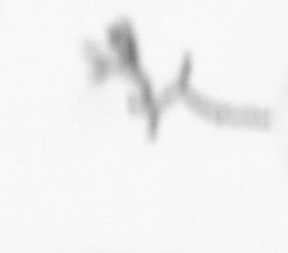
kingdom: Chromista
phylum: Ochrophyta
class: Bacillariophyceae
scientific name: Bacillariophyceae
